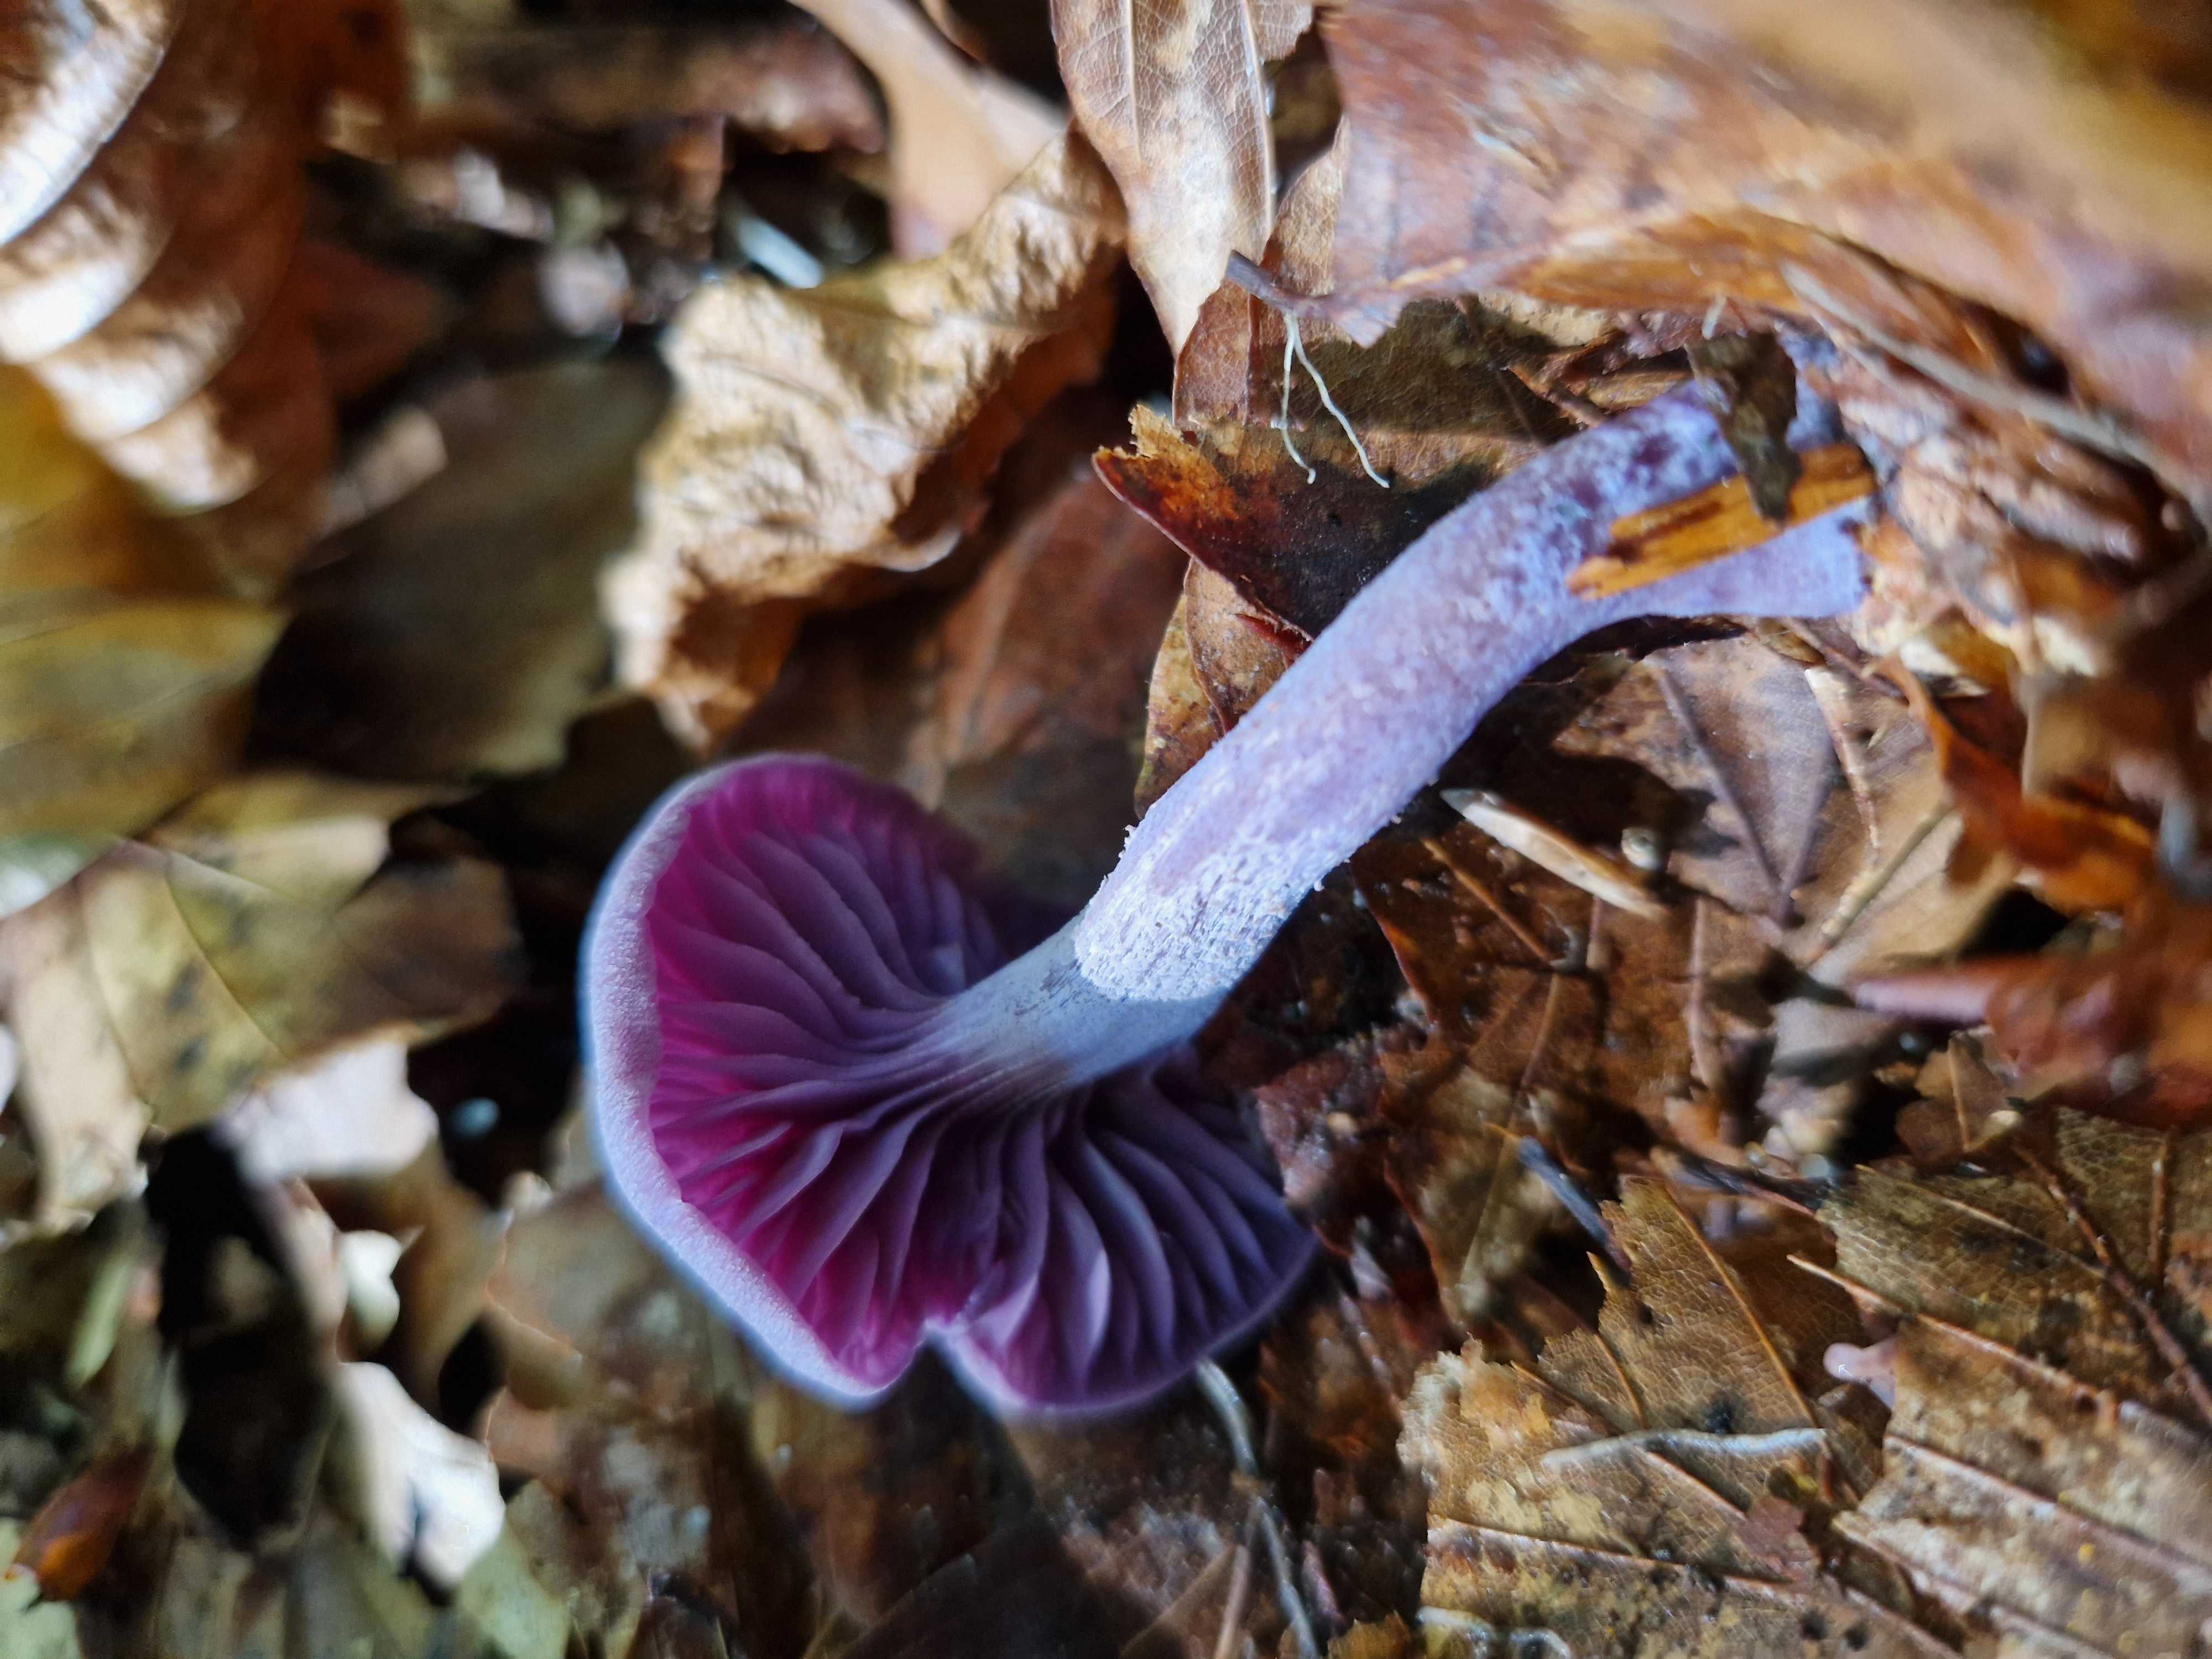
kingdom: Fungi
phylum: Basidiomycota
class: Agaricomycetes
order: Agaricales
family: Hydnangiaceae
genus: Laccaria
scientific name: Laccaria amethystina
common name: violet ametysthat
